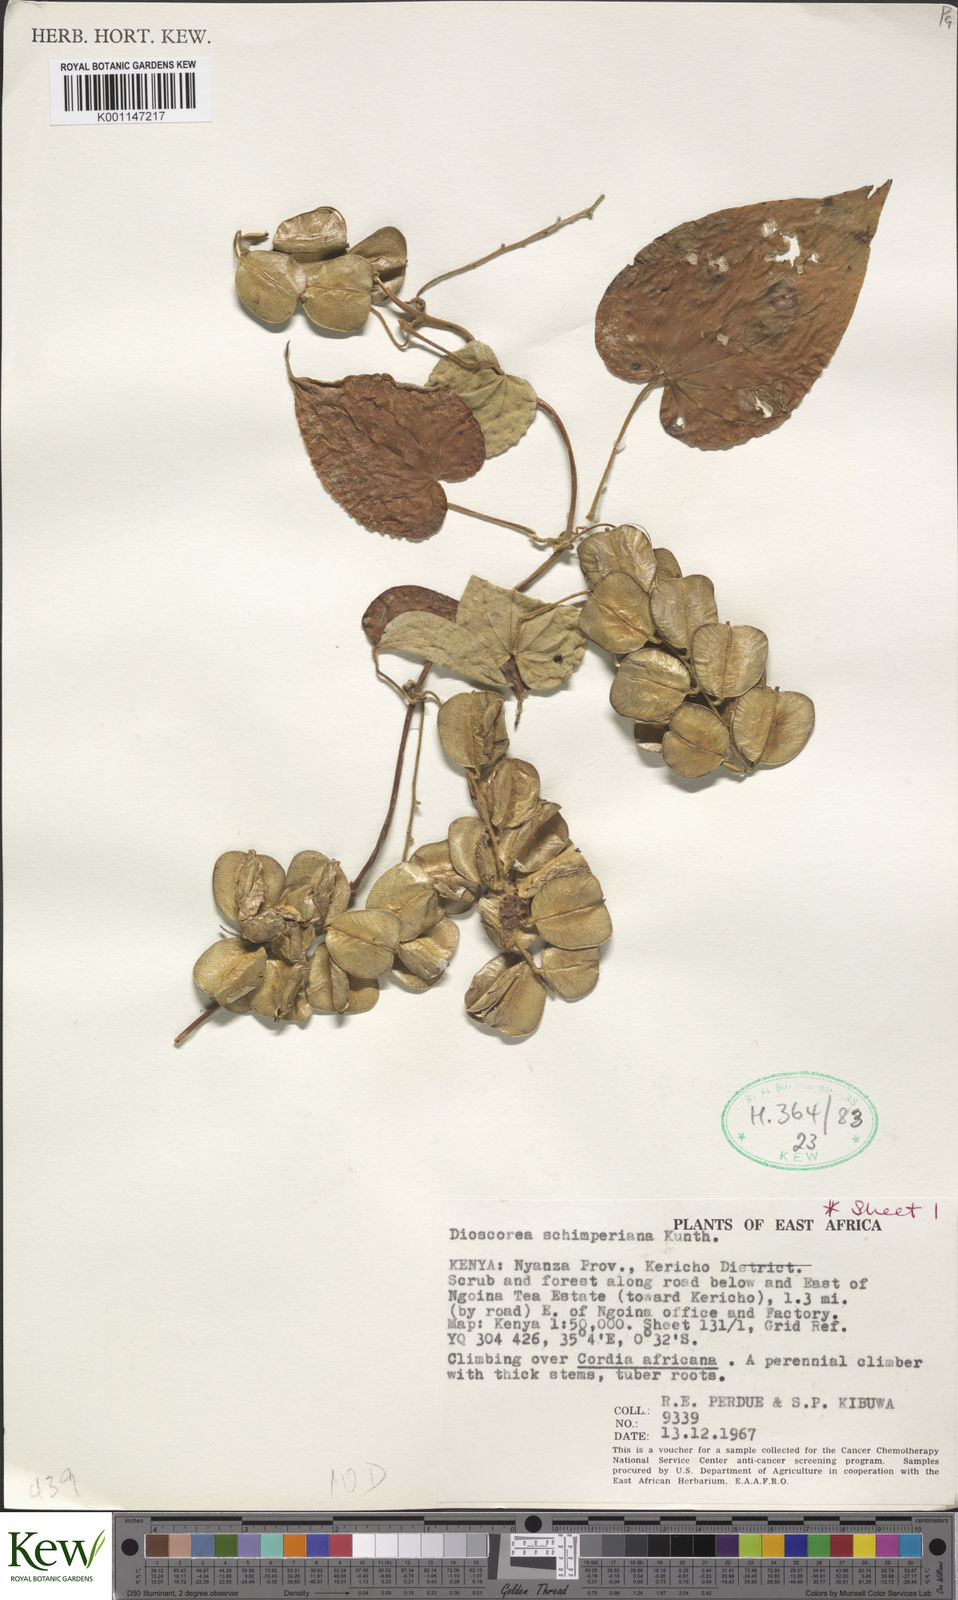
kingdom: Plantae
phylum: Tracheophyta
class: Liliopsida
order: Dioscoreales
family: Dioscoreaceae
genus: Dioscorea
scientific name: Dioscorea schimperiana
